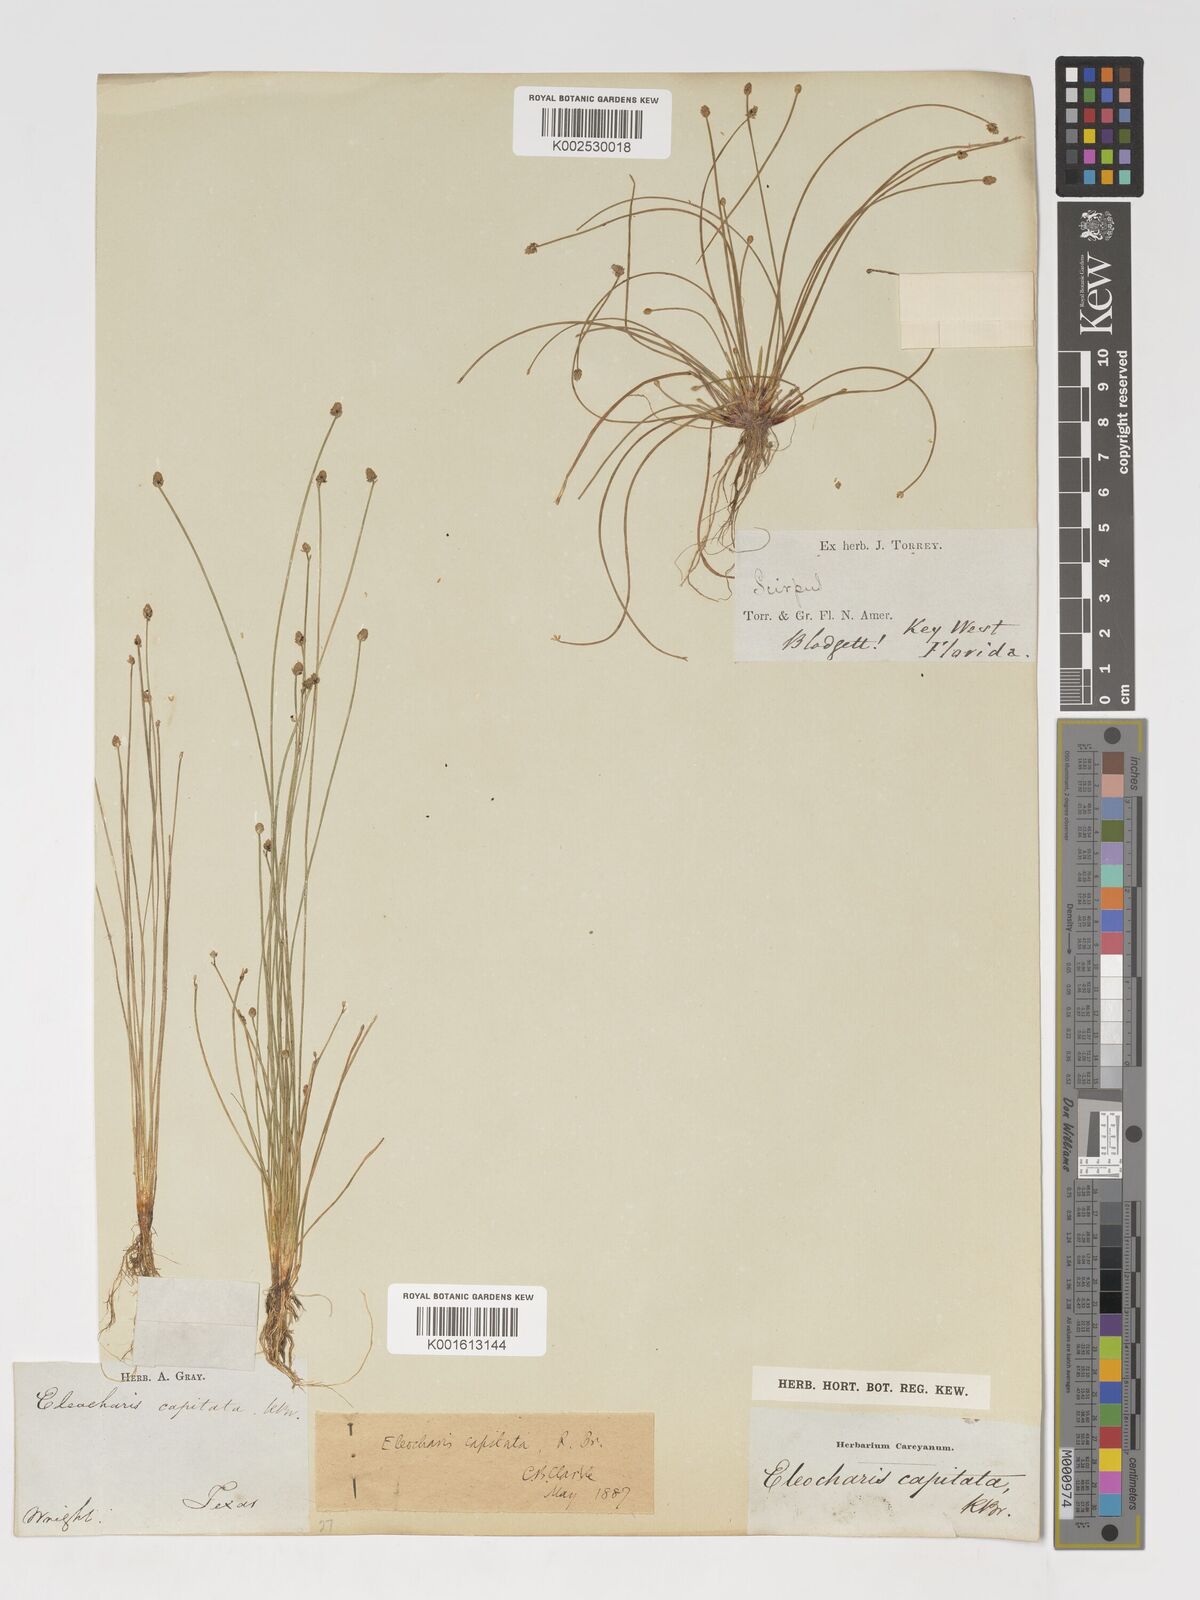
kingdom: Plantae
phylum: Tracheophyta
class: Liliopsida
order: Poales
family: Cyperaceae
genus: Eleocharis
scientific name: Eleocharis geniculata
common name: Canada spikesedge
